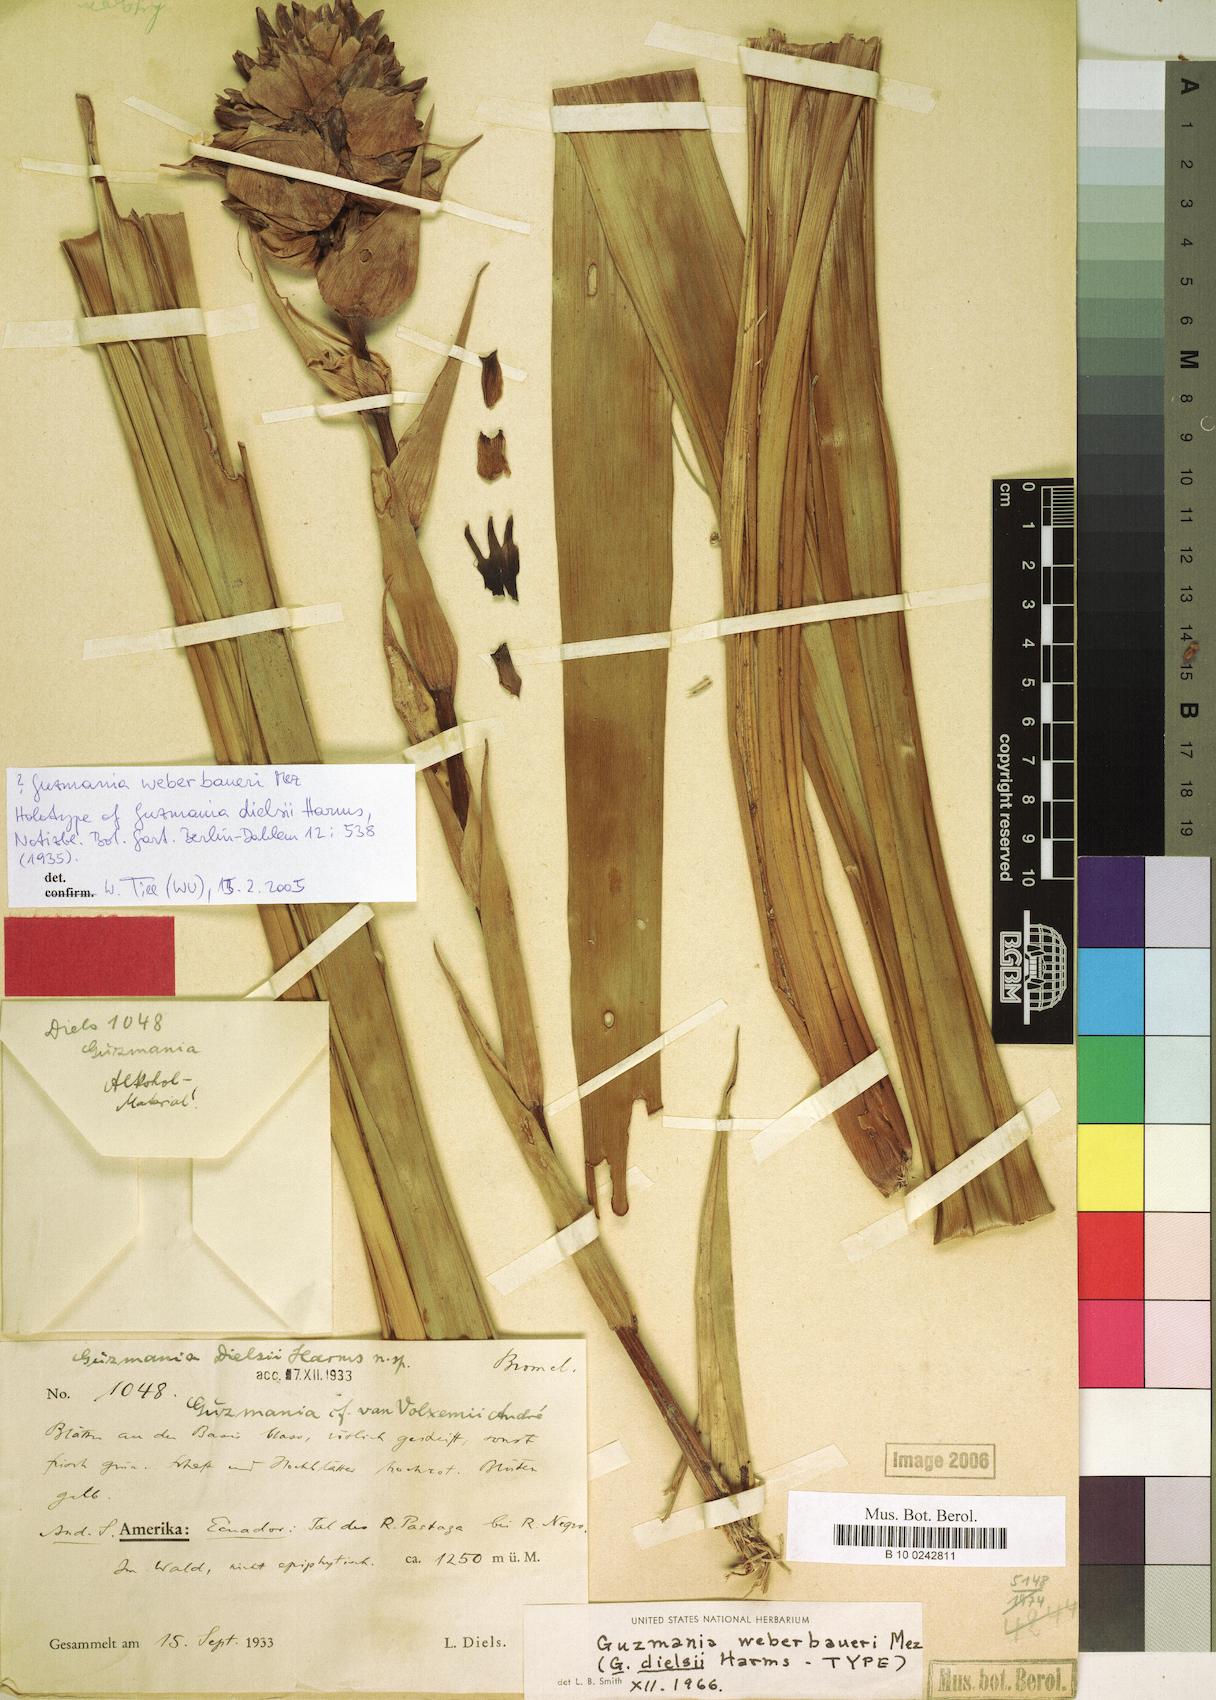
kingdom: Plantae
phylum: Tracheophyta
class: Liliopsida
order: Poales
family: Bromeliaceae
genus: Guzmania
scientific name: Guzmania weberbaueri
